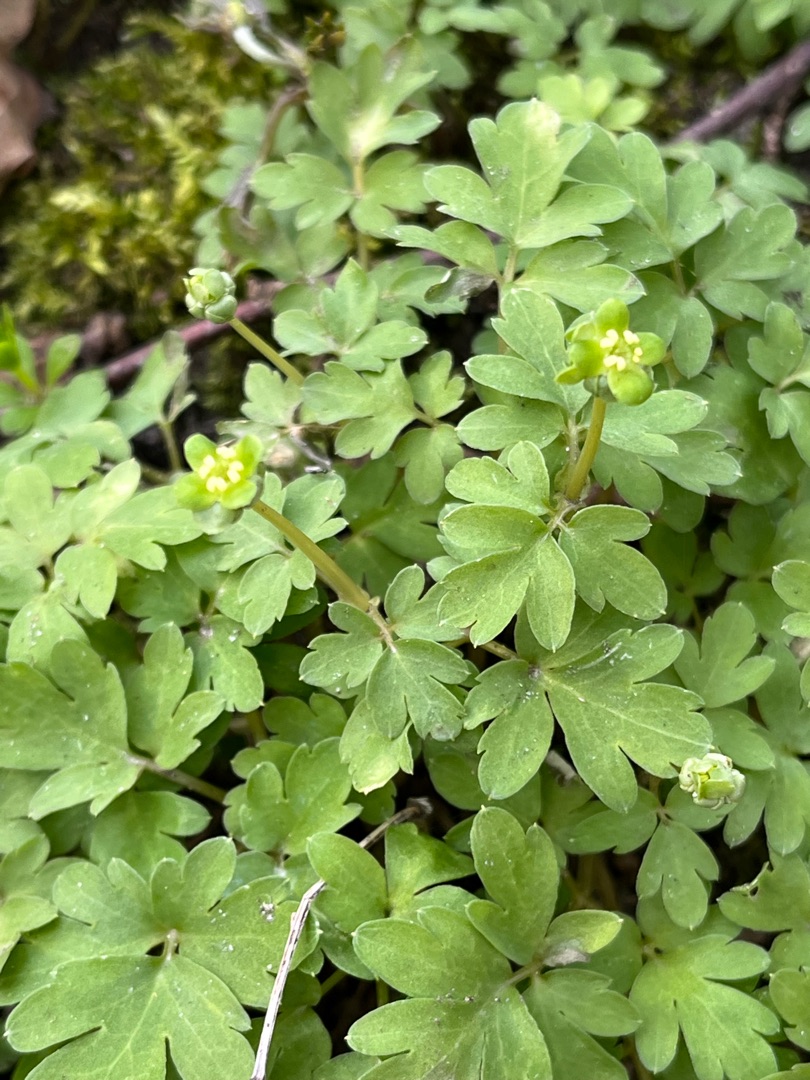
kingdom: Plantae
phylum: Tracheophyta
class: Magnoliopsida
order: Dipsacales
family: Viburnaceae
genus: Adoxa
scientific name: Adoxa moschatellina
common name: Desmerurt
